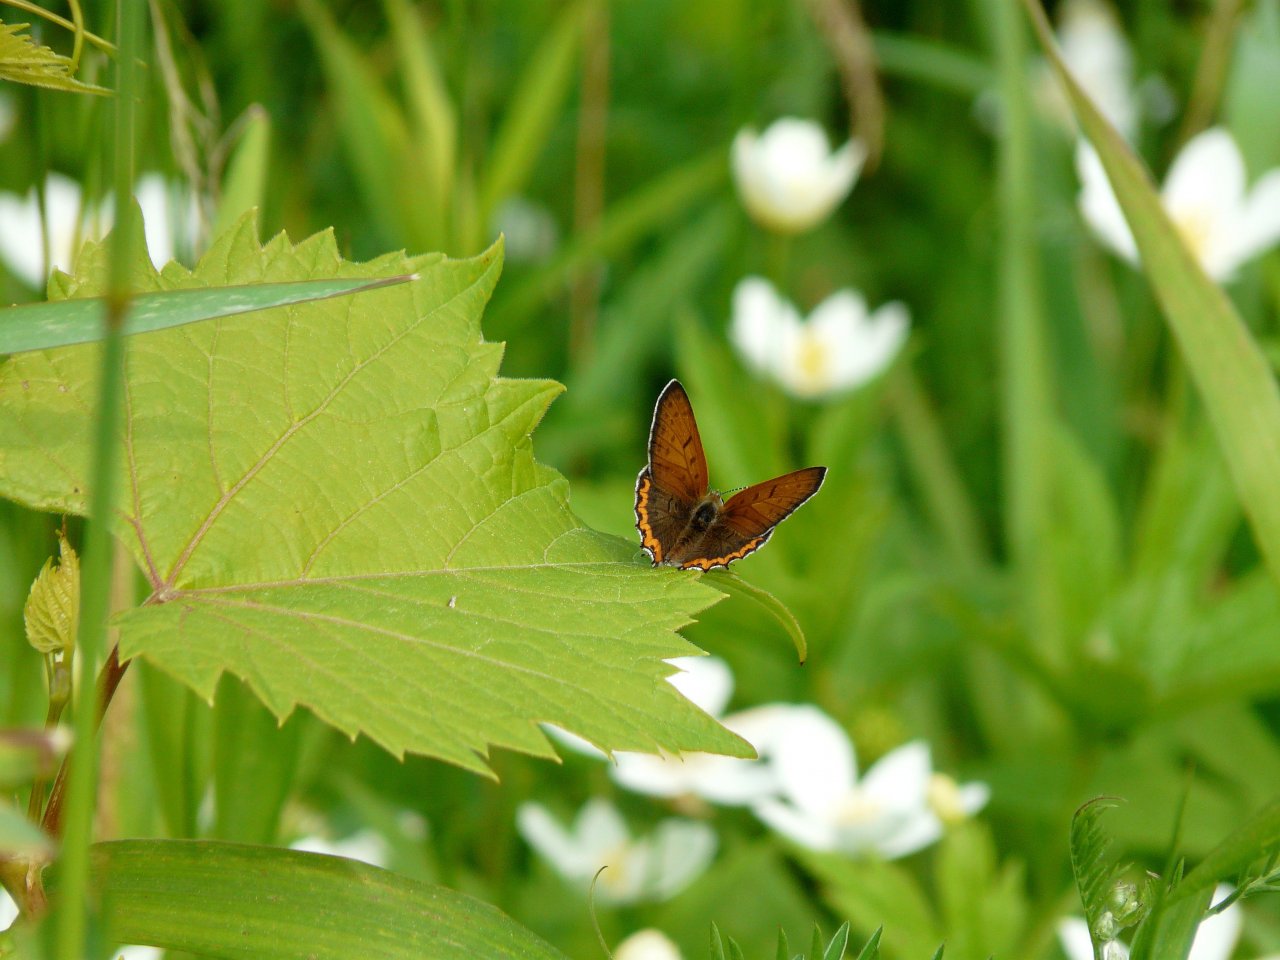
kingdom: Animalia
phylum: Arthropoda
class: Insecta
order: Lepidoptera
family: Sesiidae
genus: Sesia
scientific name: Sesia Lycaena hyllus
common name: Bronze Copper
